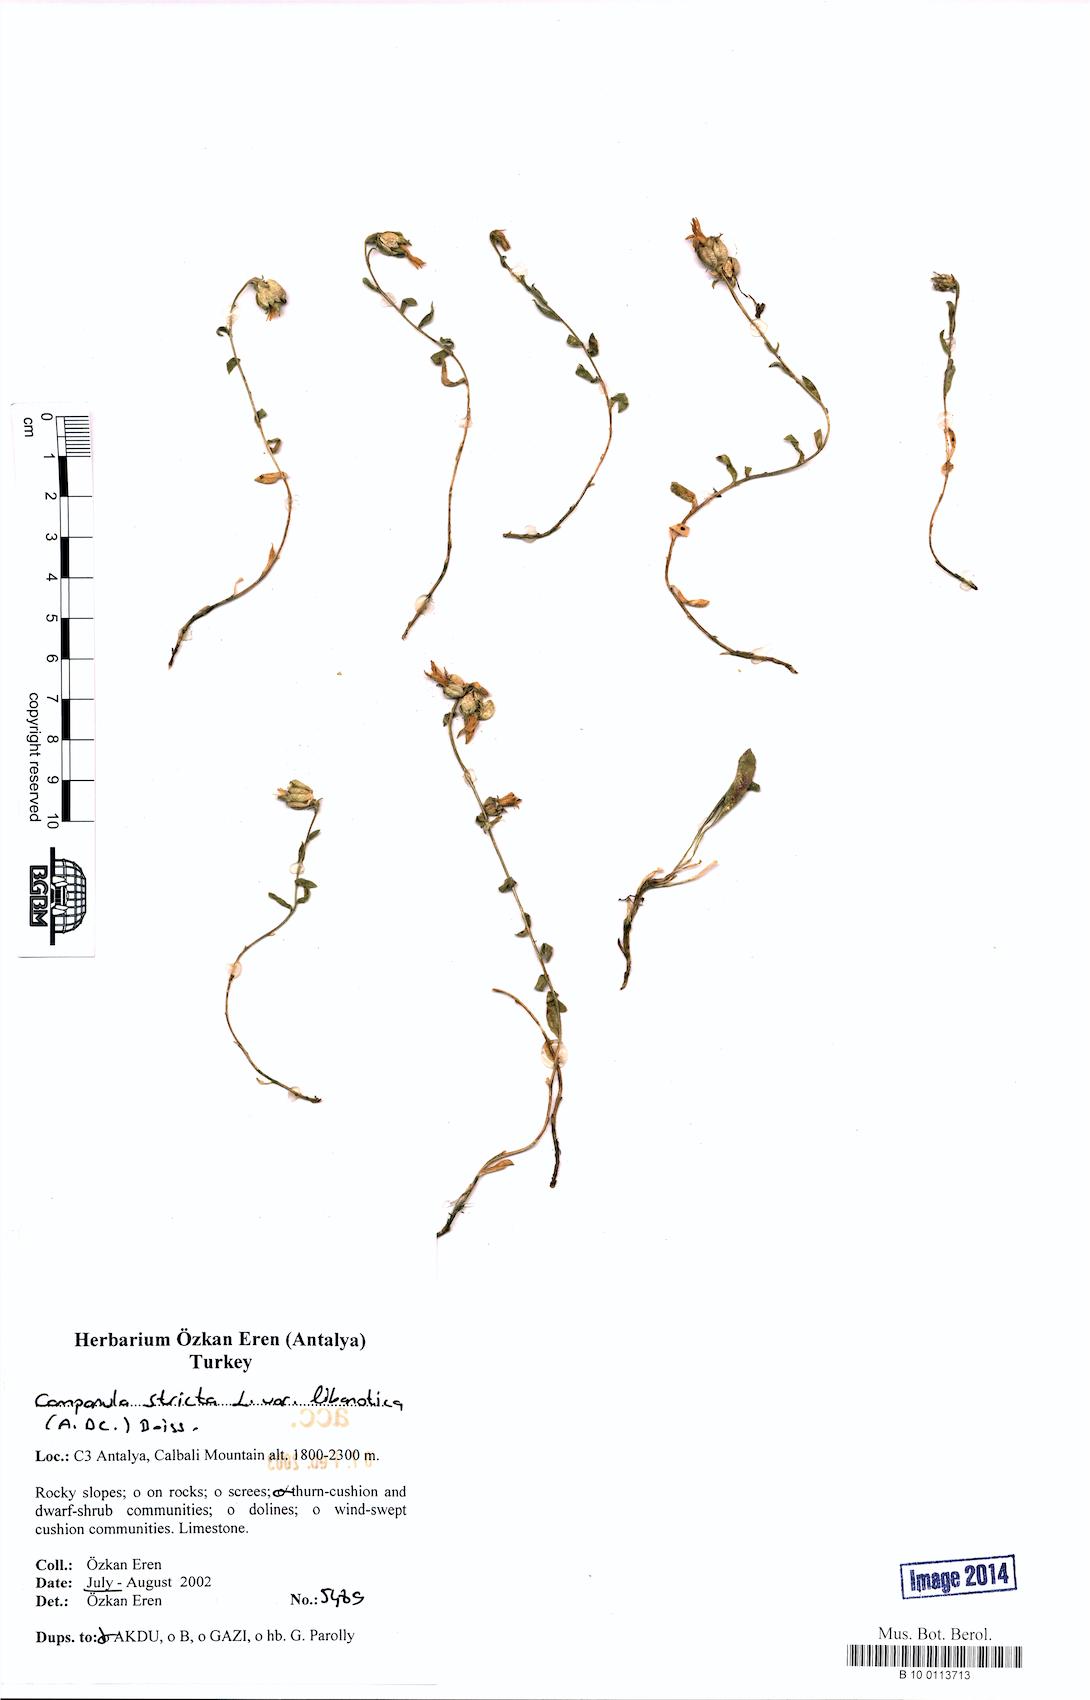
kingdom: Plantae
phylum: Tracheophyta
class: Magnoliopsida
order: Asterales
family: Campanulaceae
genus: Campanula
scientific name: Campanula stricta
